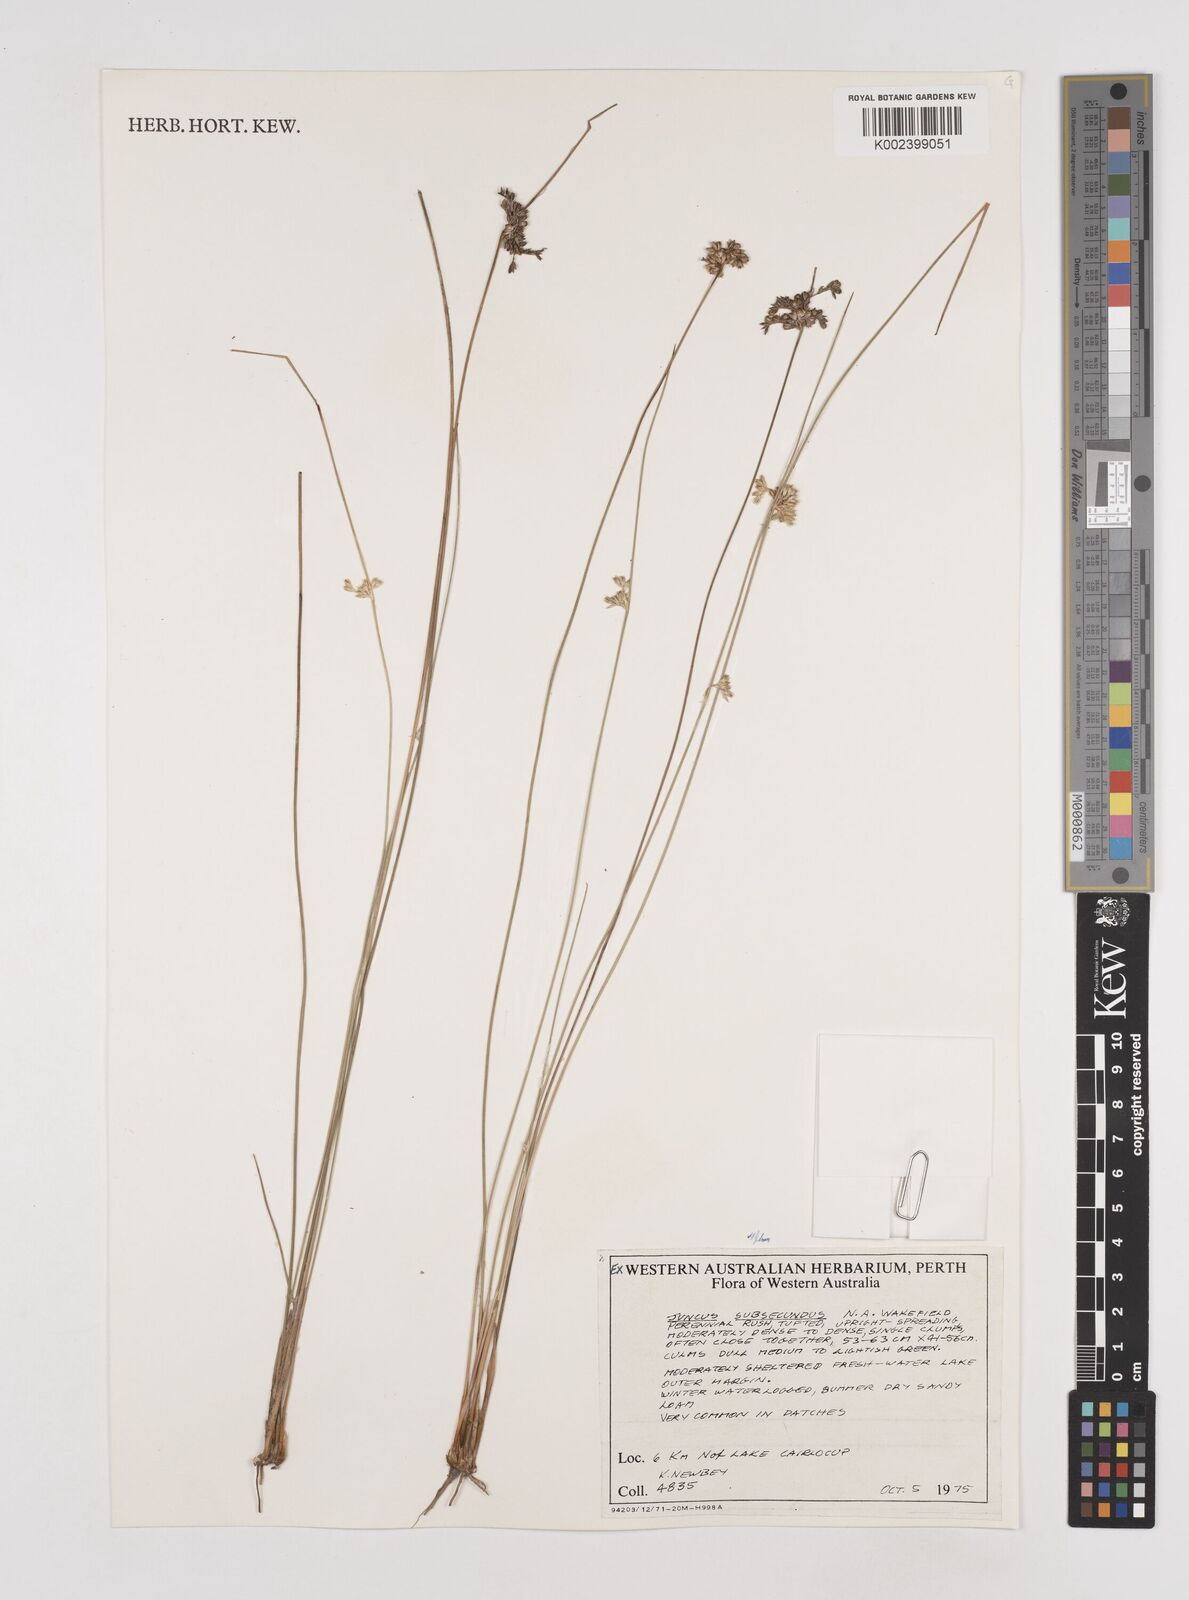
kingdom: Plantae
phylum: Tracheophyta
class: Liliopsida
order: Poales
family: Juncaceae
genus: Juncus
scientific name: Juncus subsecundus
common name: Fingered rush
